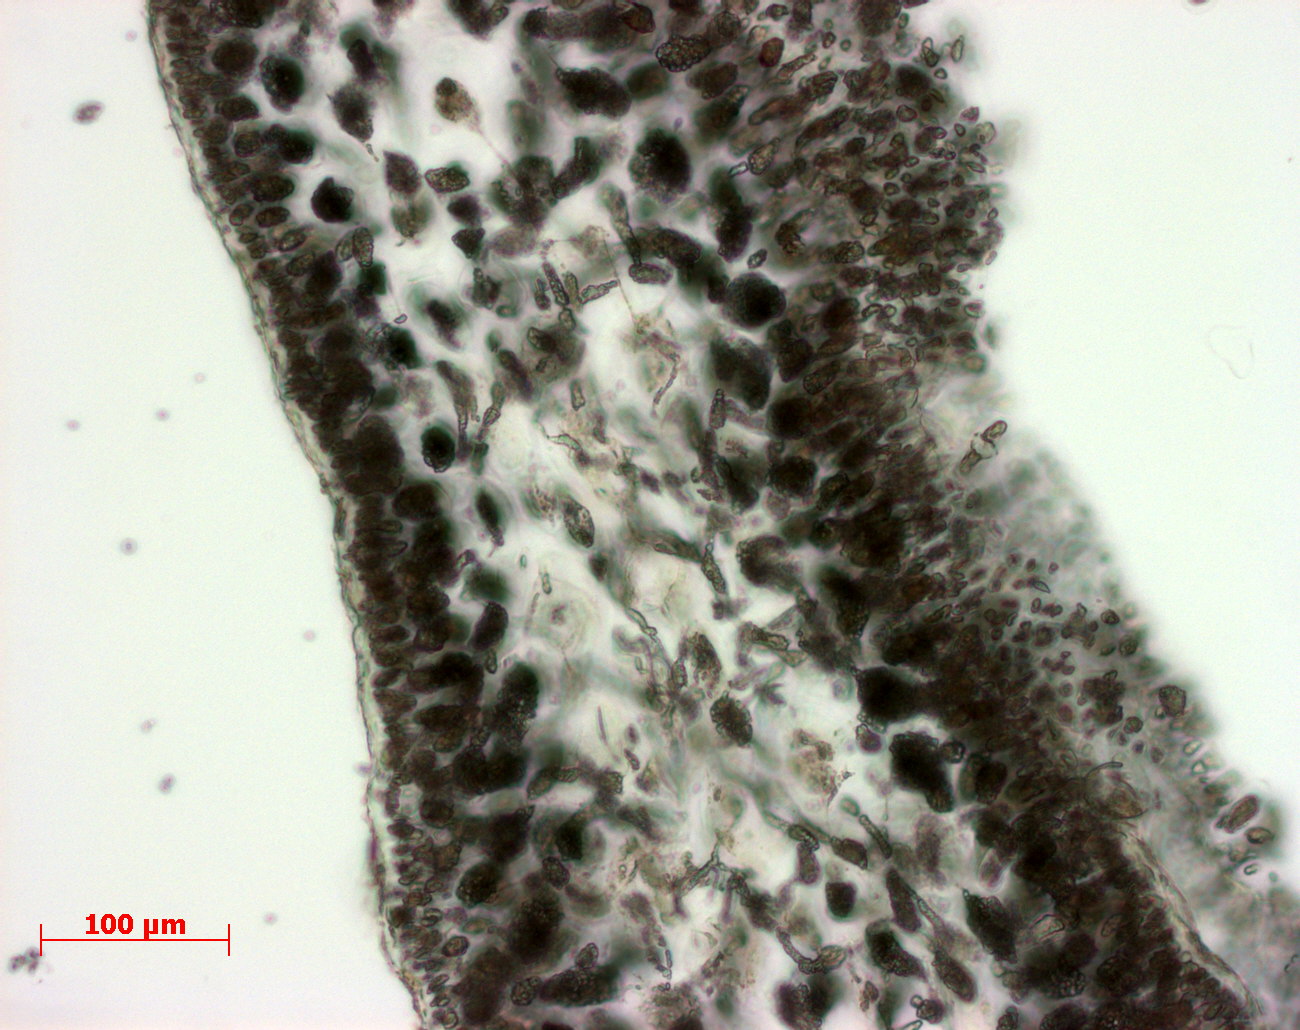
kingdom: Plantae
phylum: Rhodophyta
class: Florideophyceae
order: Gigartinales
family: Kallymeniaceae
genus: Thamnophyllis
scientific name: Thamnophyllis
